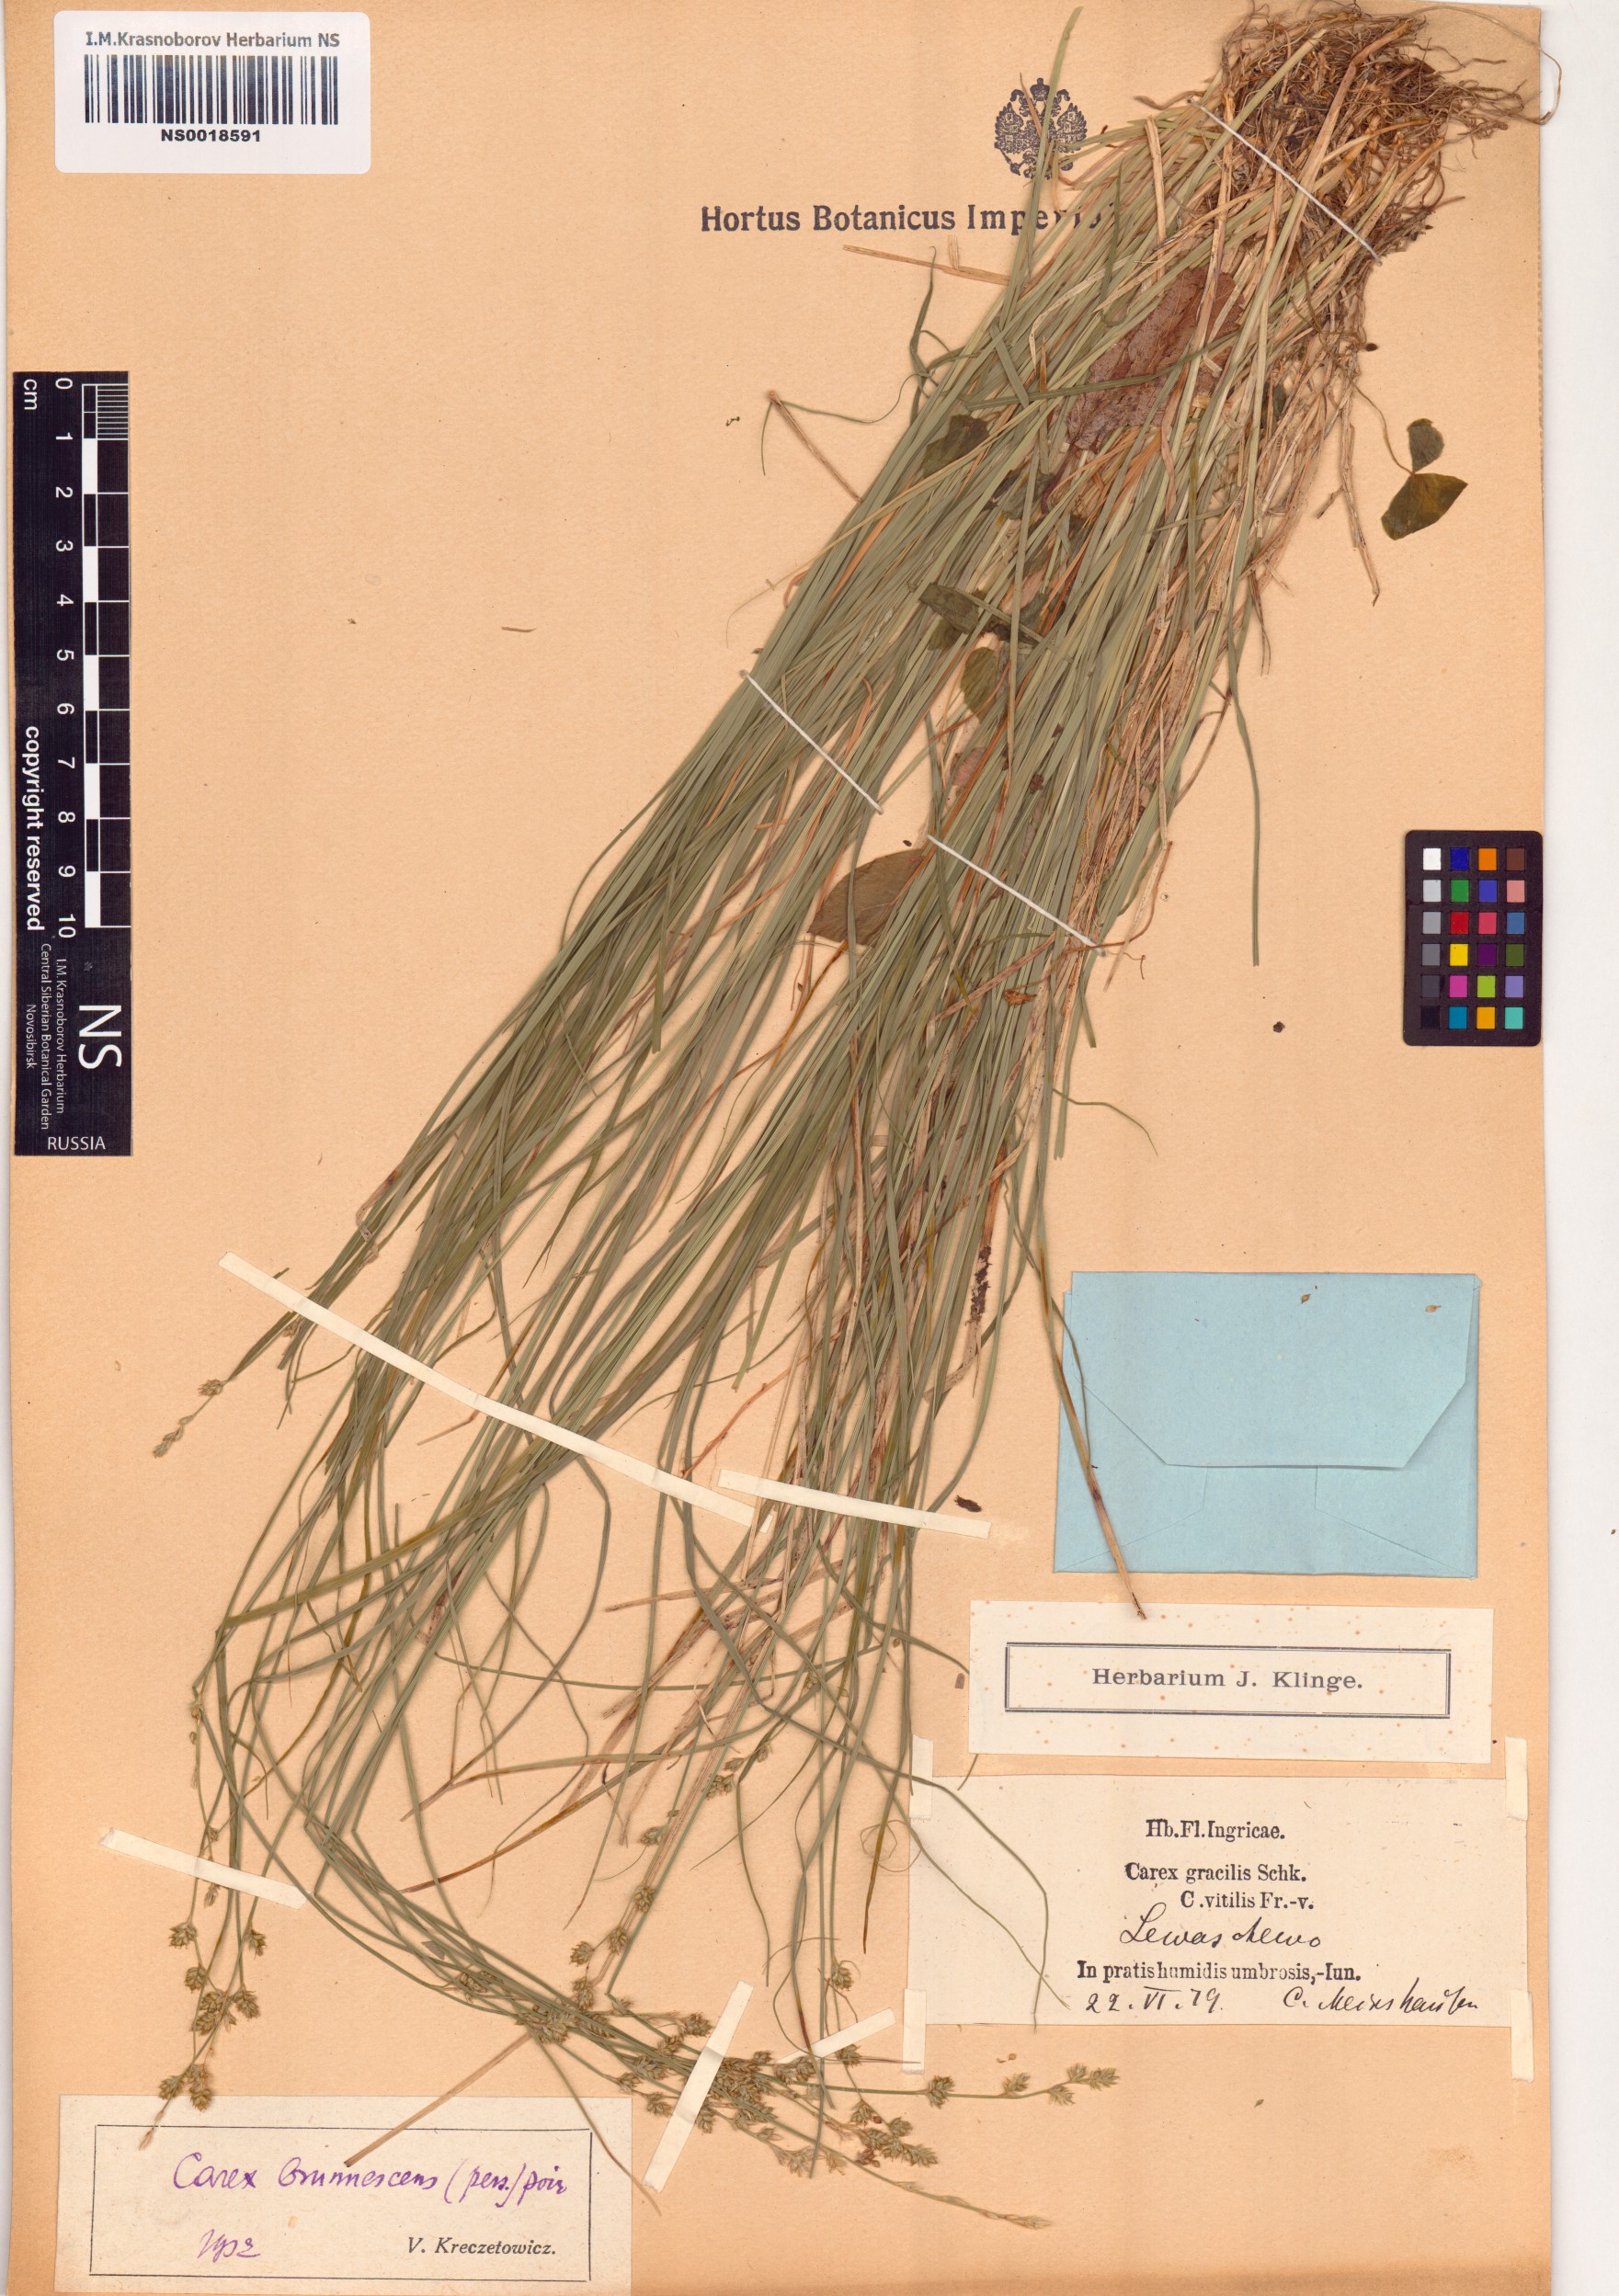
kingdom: Plantae
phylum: Tracheophyta
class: Liliopsida
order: Poales
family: Cyperaceae
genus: Carex
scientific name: Carex brunnescens
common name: Brown sedge
